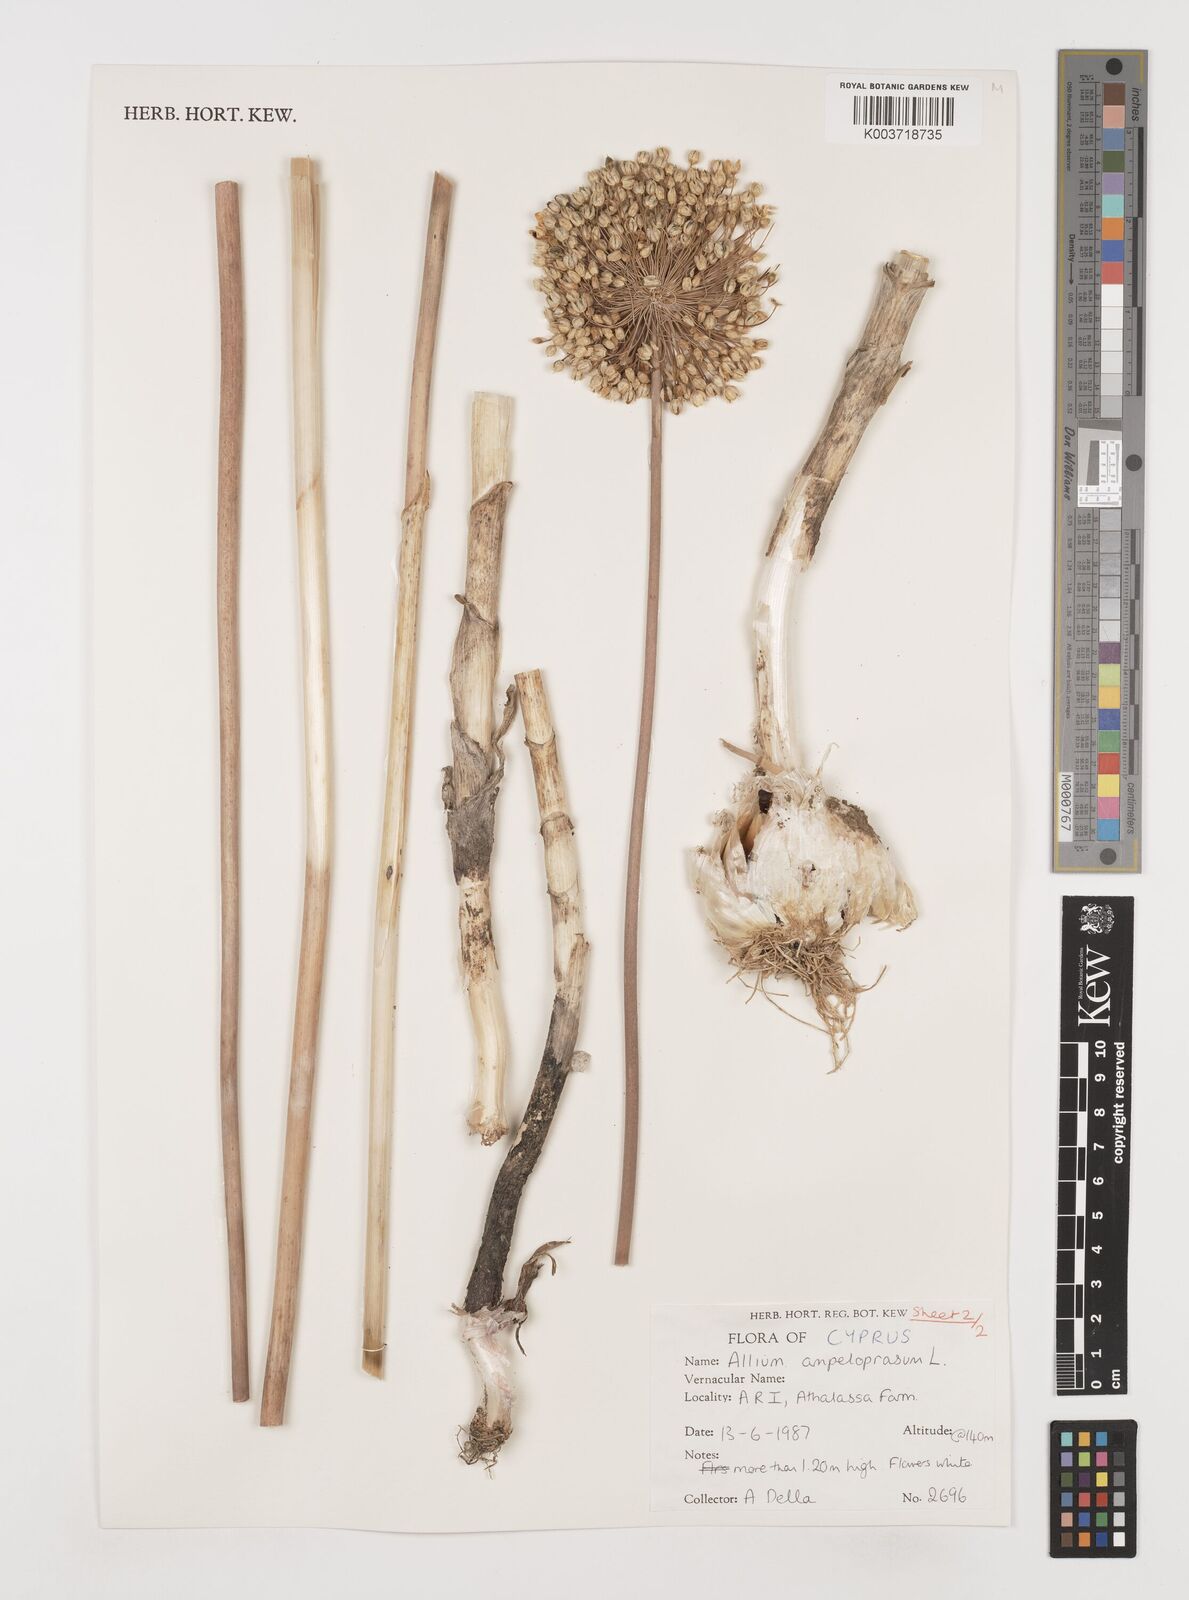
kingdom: Plantae
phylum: Tracheophyta
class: Liliopsida
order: Asparagales
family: Amaryllidaceae
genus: Allium
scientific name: Allium ampeloprasum
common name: Wild leek
